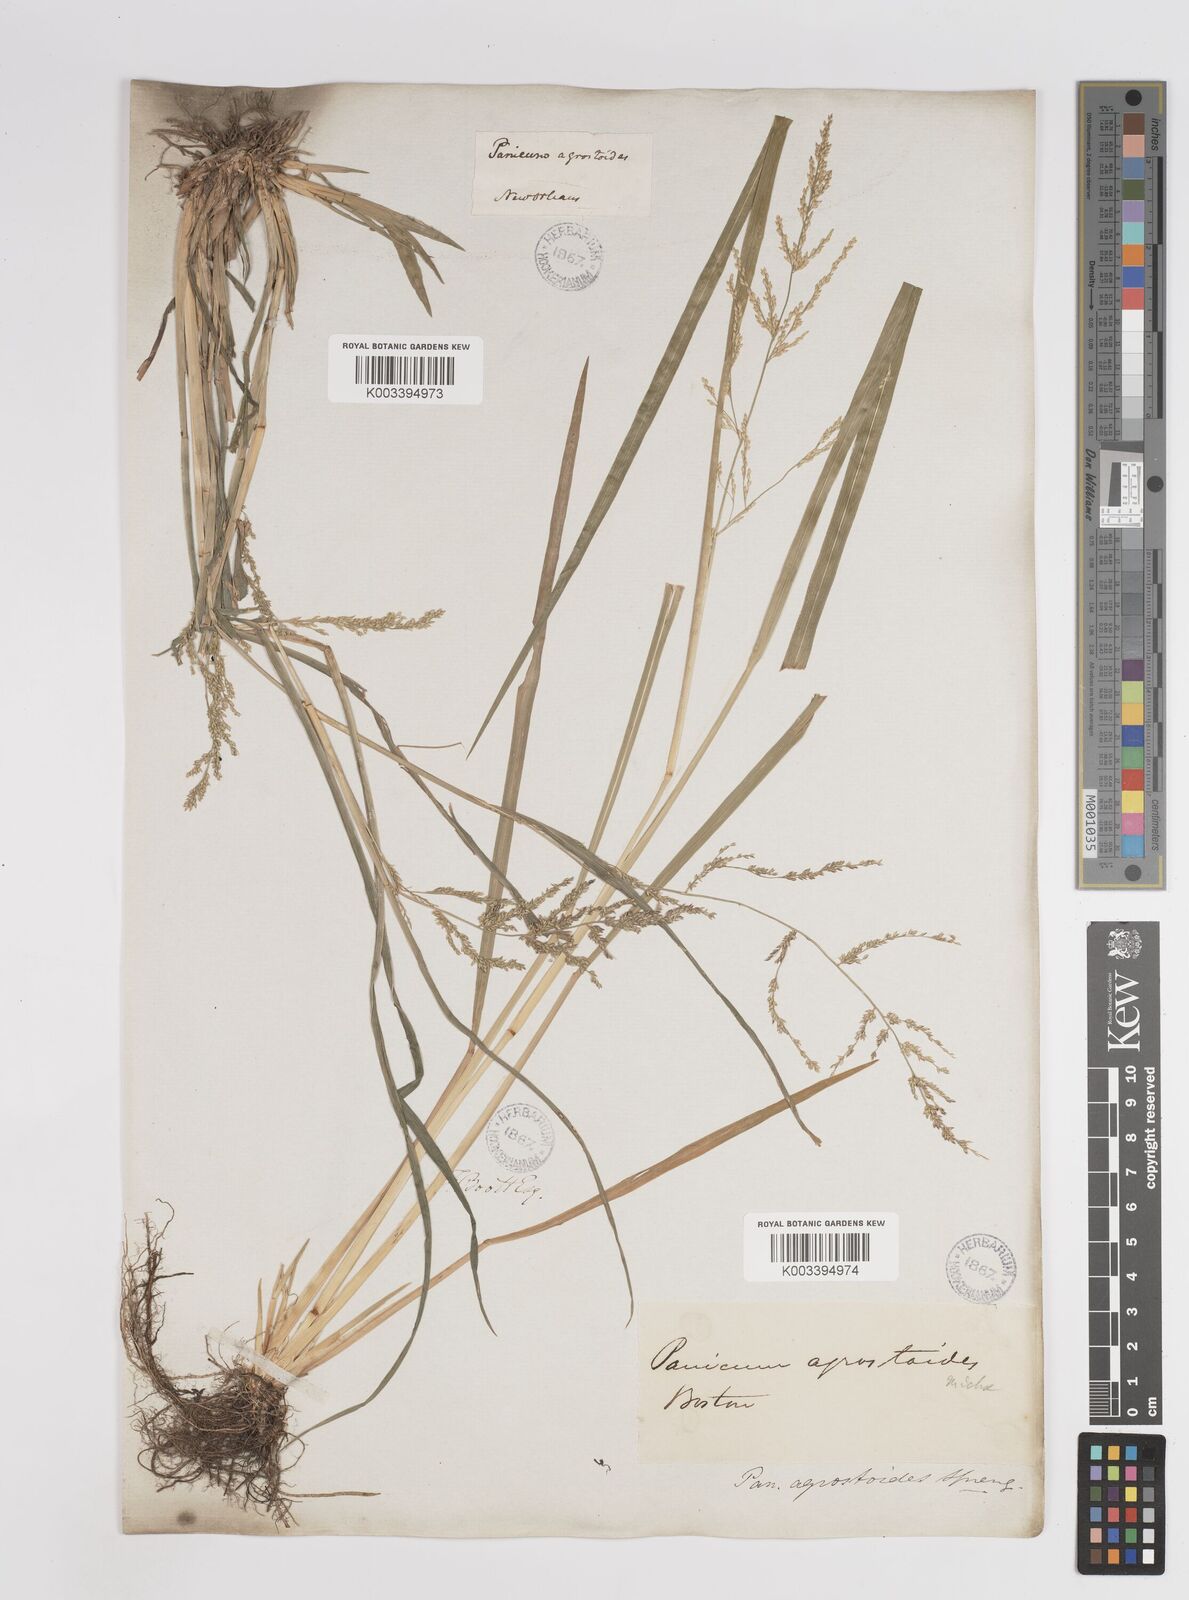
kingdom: Plantae
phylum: Tracheophyta
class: Liliopsida
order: Poales
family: Poaceae
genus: Steinchisma
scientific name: Steinchisma laxum
